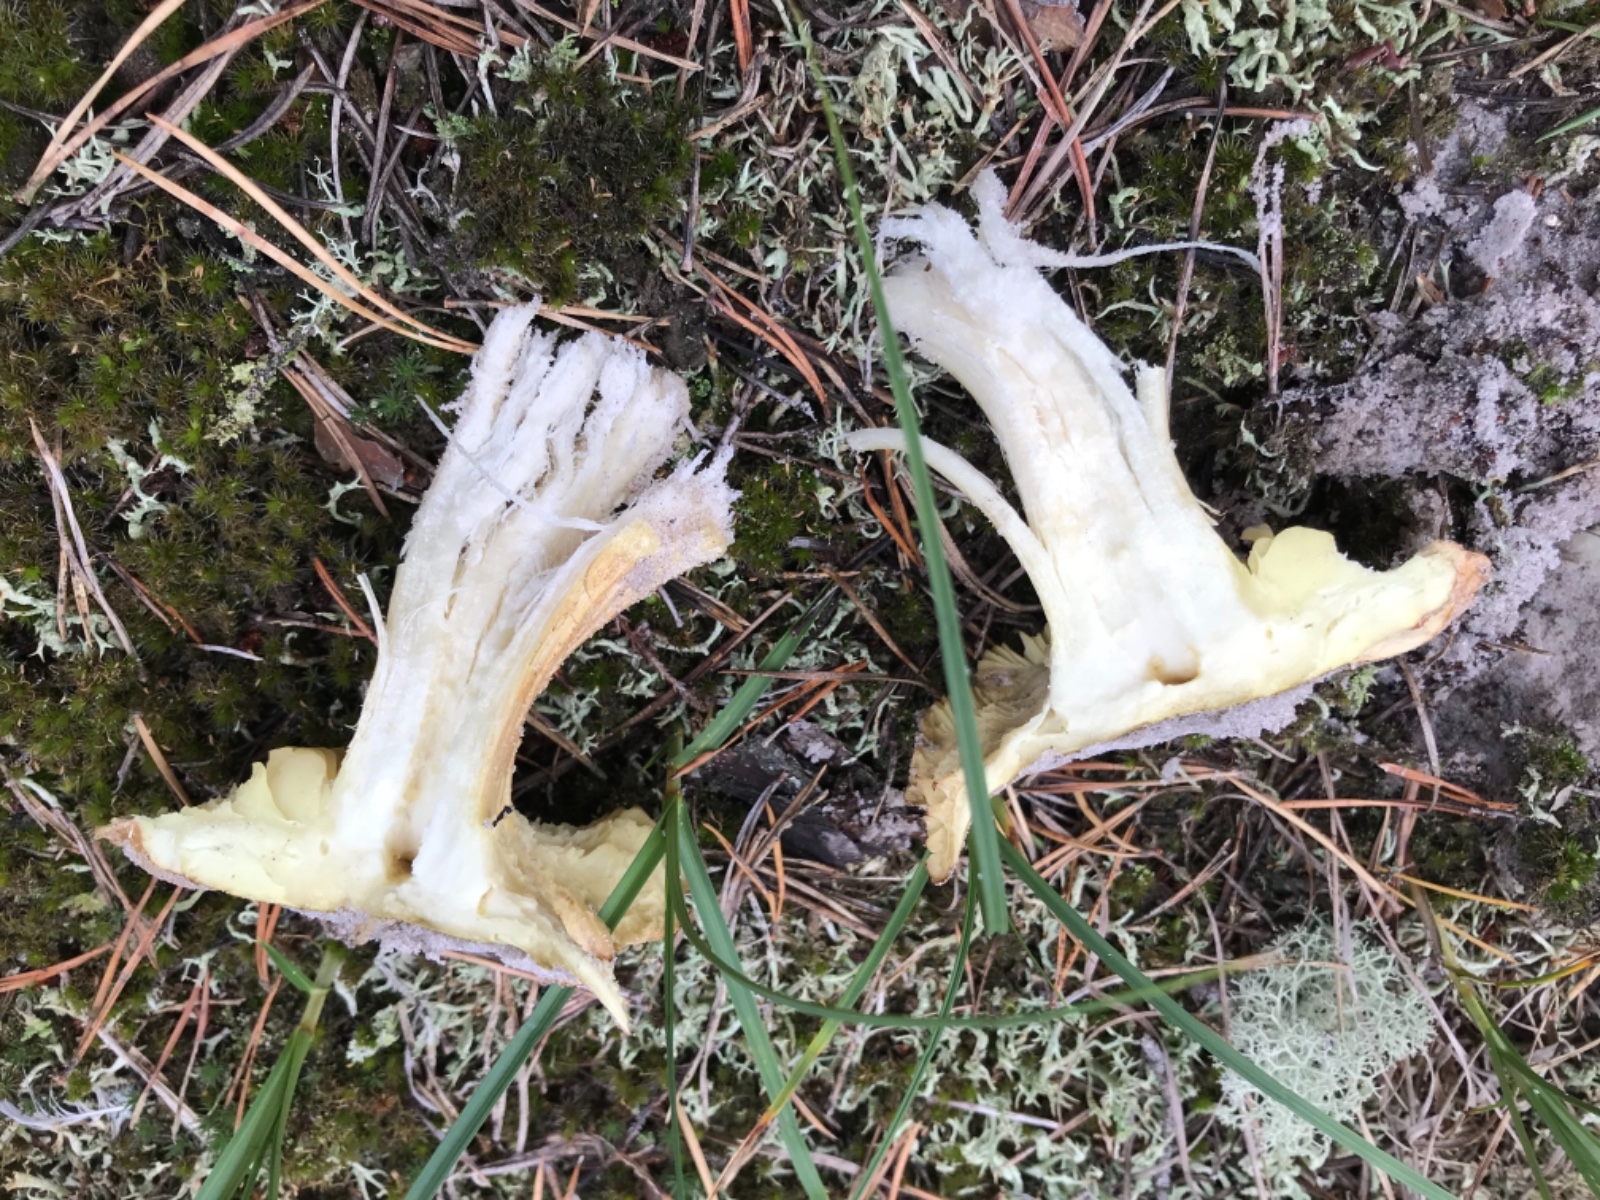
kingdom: Fungi
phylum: Basidiomycota
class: Agaricomycetes
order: Agaricales
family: Tricholomataceae
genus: Tricholoma
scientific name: Tricholoma equestre
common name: ægte ridderhat
